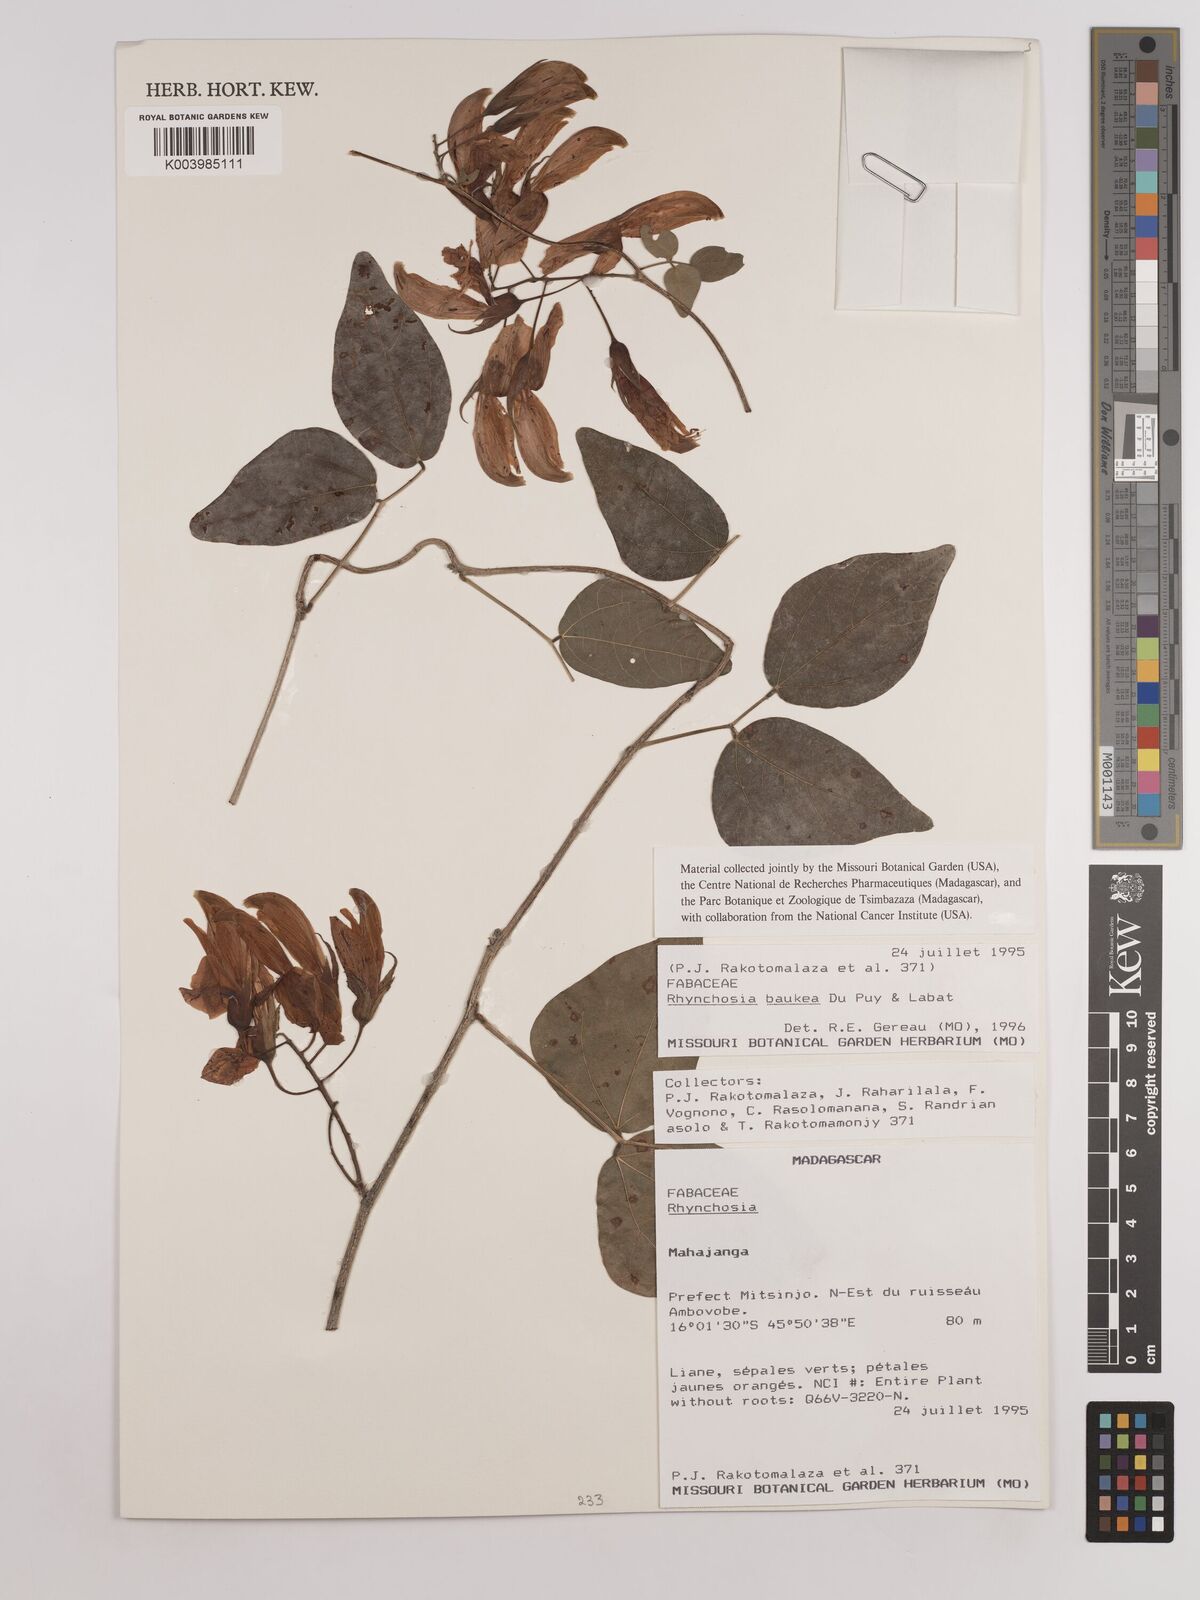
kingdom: Plantae
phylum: Tracheophyta
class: Magnoliopsida
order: Fabales
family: Fabaceae
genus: Rhynchosia
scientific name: Rhynchosia baukea
